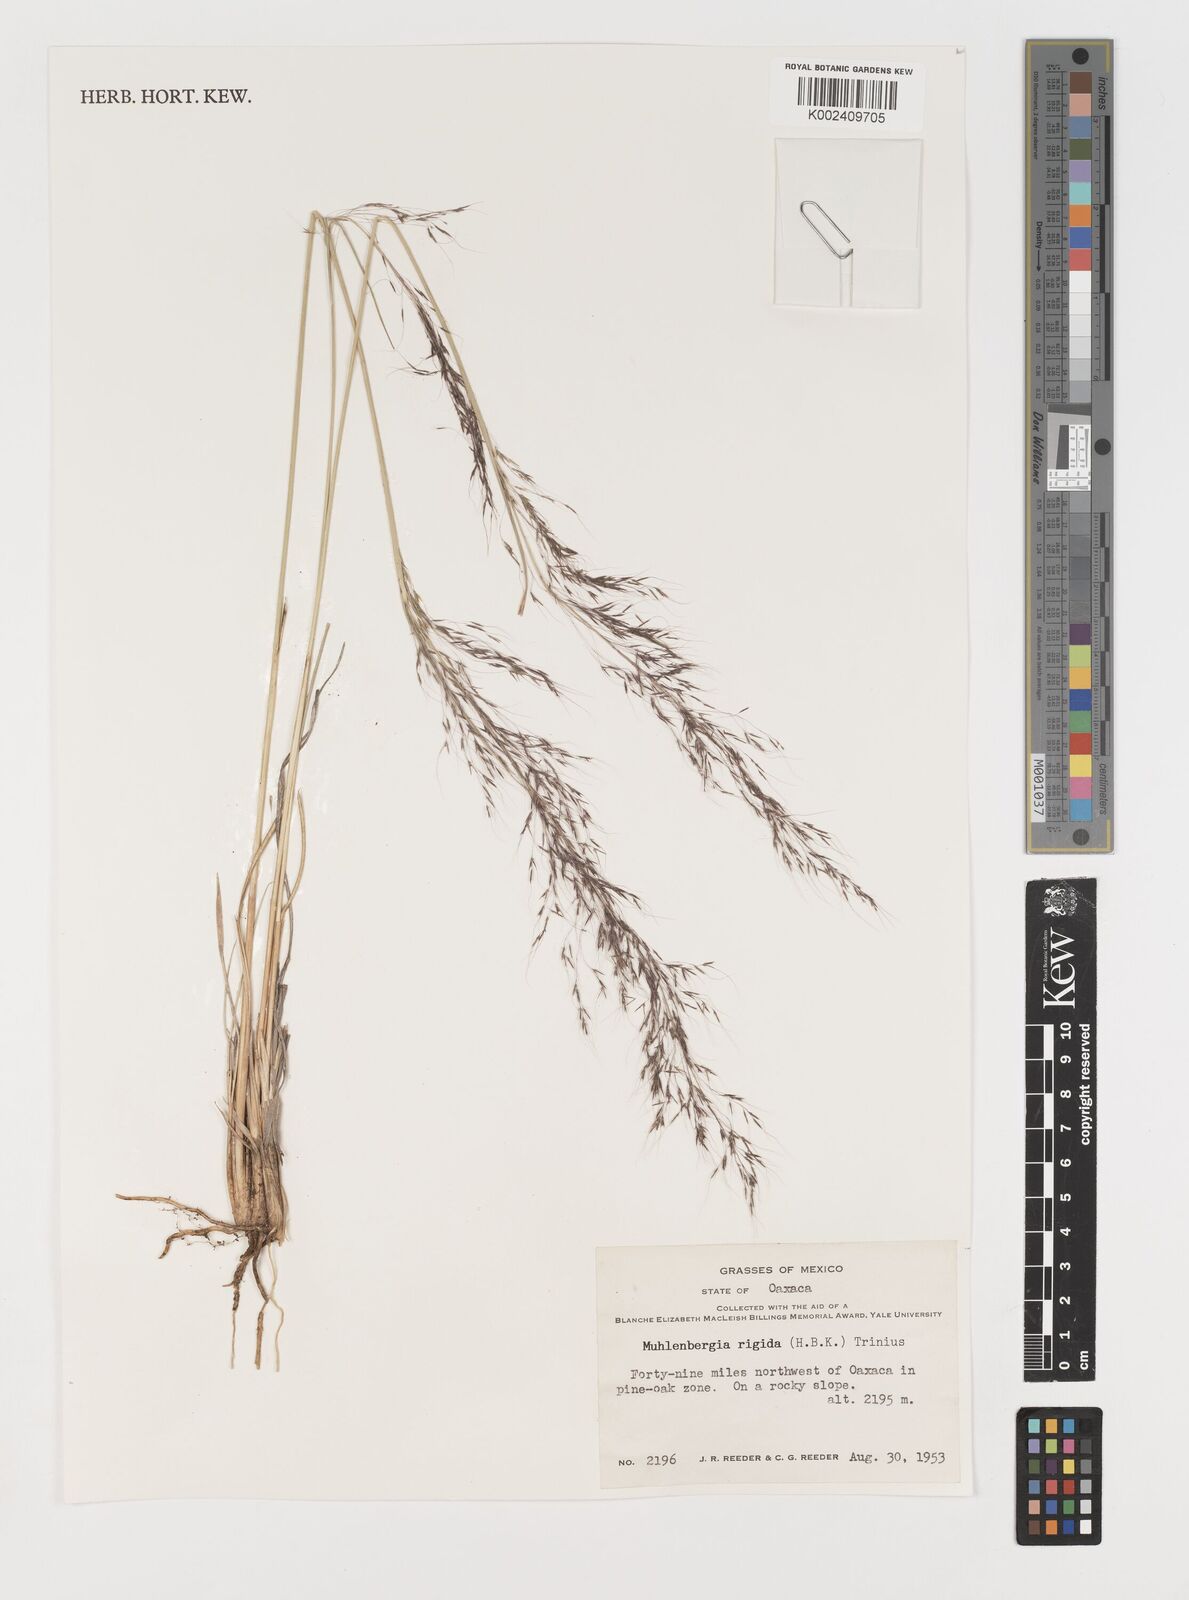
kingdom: Plantae
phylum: Tracheophyta
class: Liliopsida
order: Poales
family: Poaceae
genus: Muhlenbergia
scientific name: Muhlenbergia rigida
